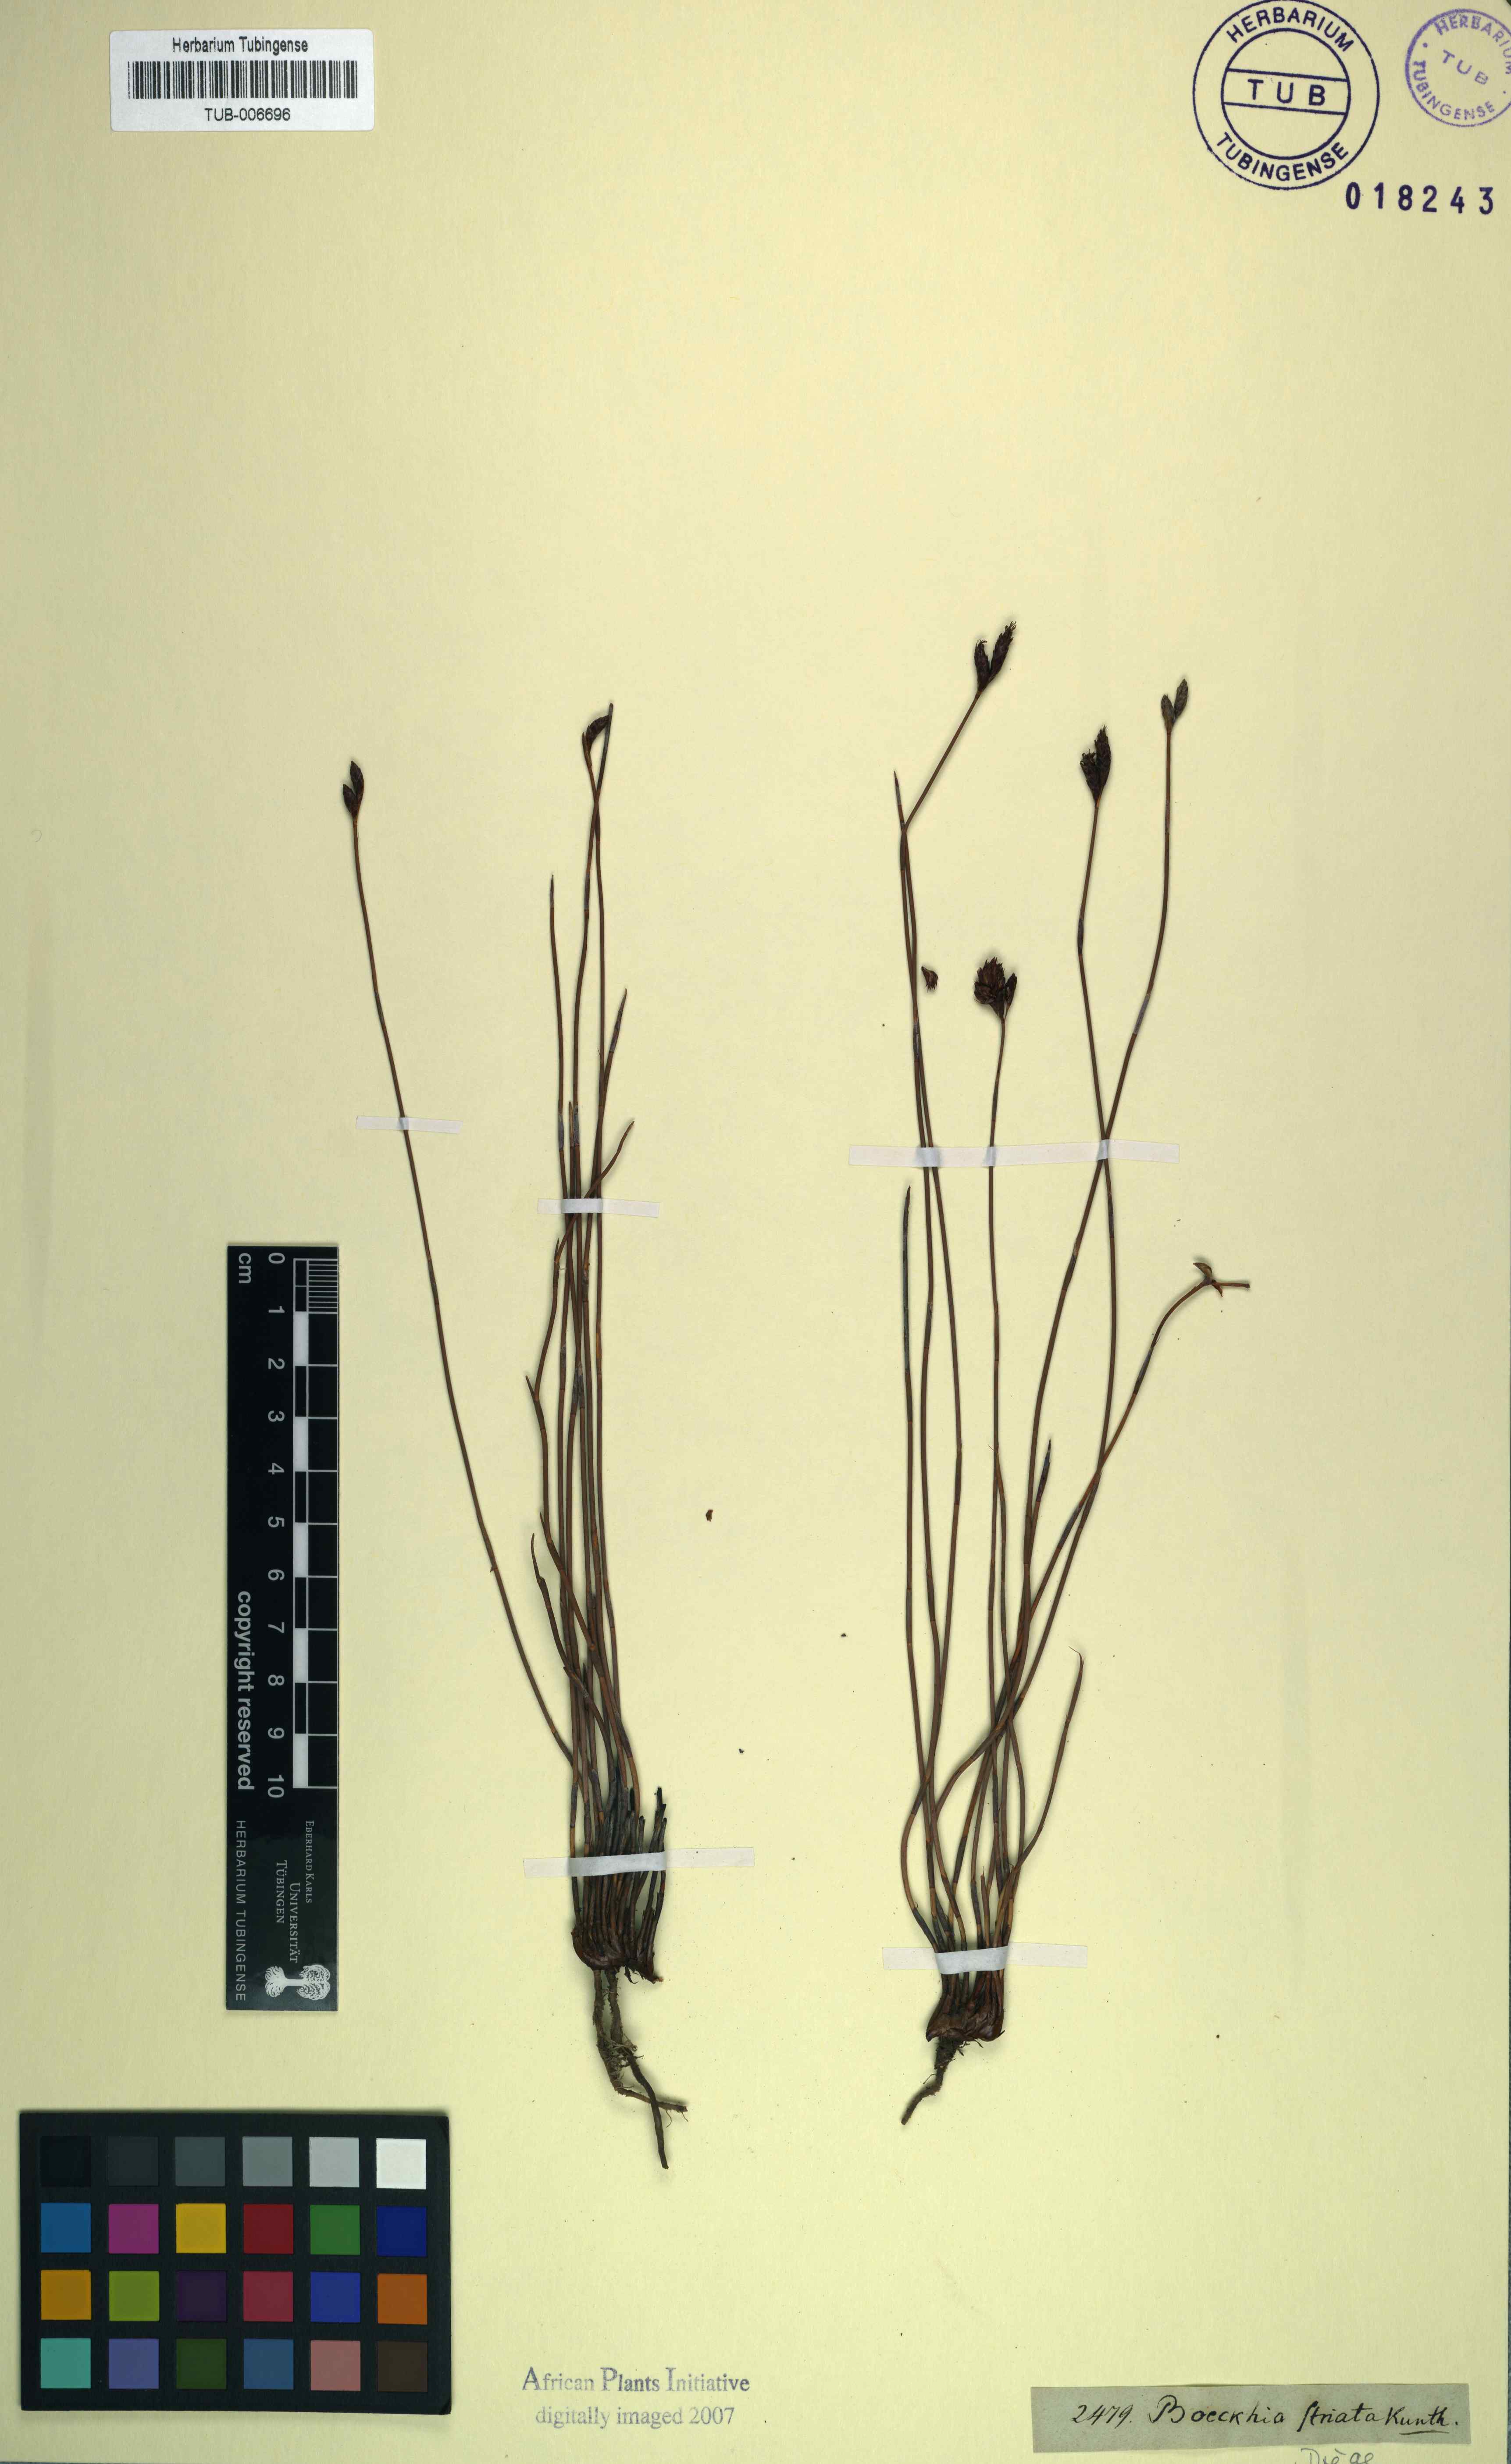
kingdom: Plantae
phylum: Tracheophyta
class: Liliopsida
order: Poales
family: Restionaceae
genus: Hypodiscus
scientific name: Hypodiscus striatus
